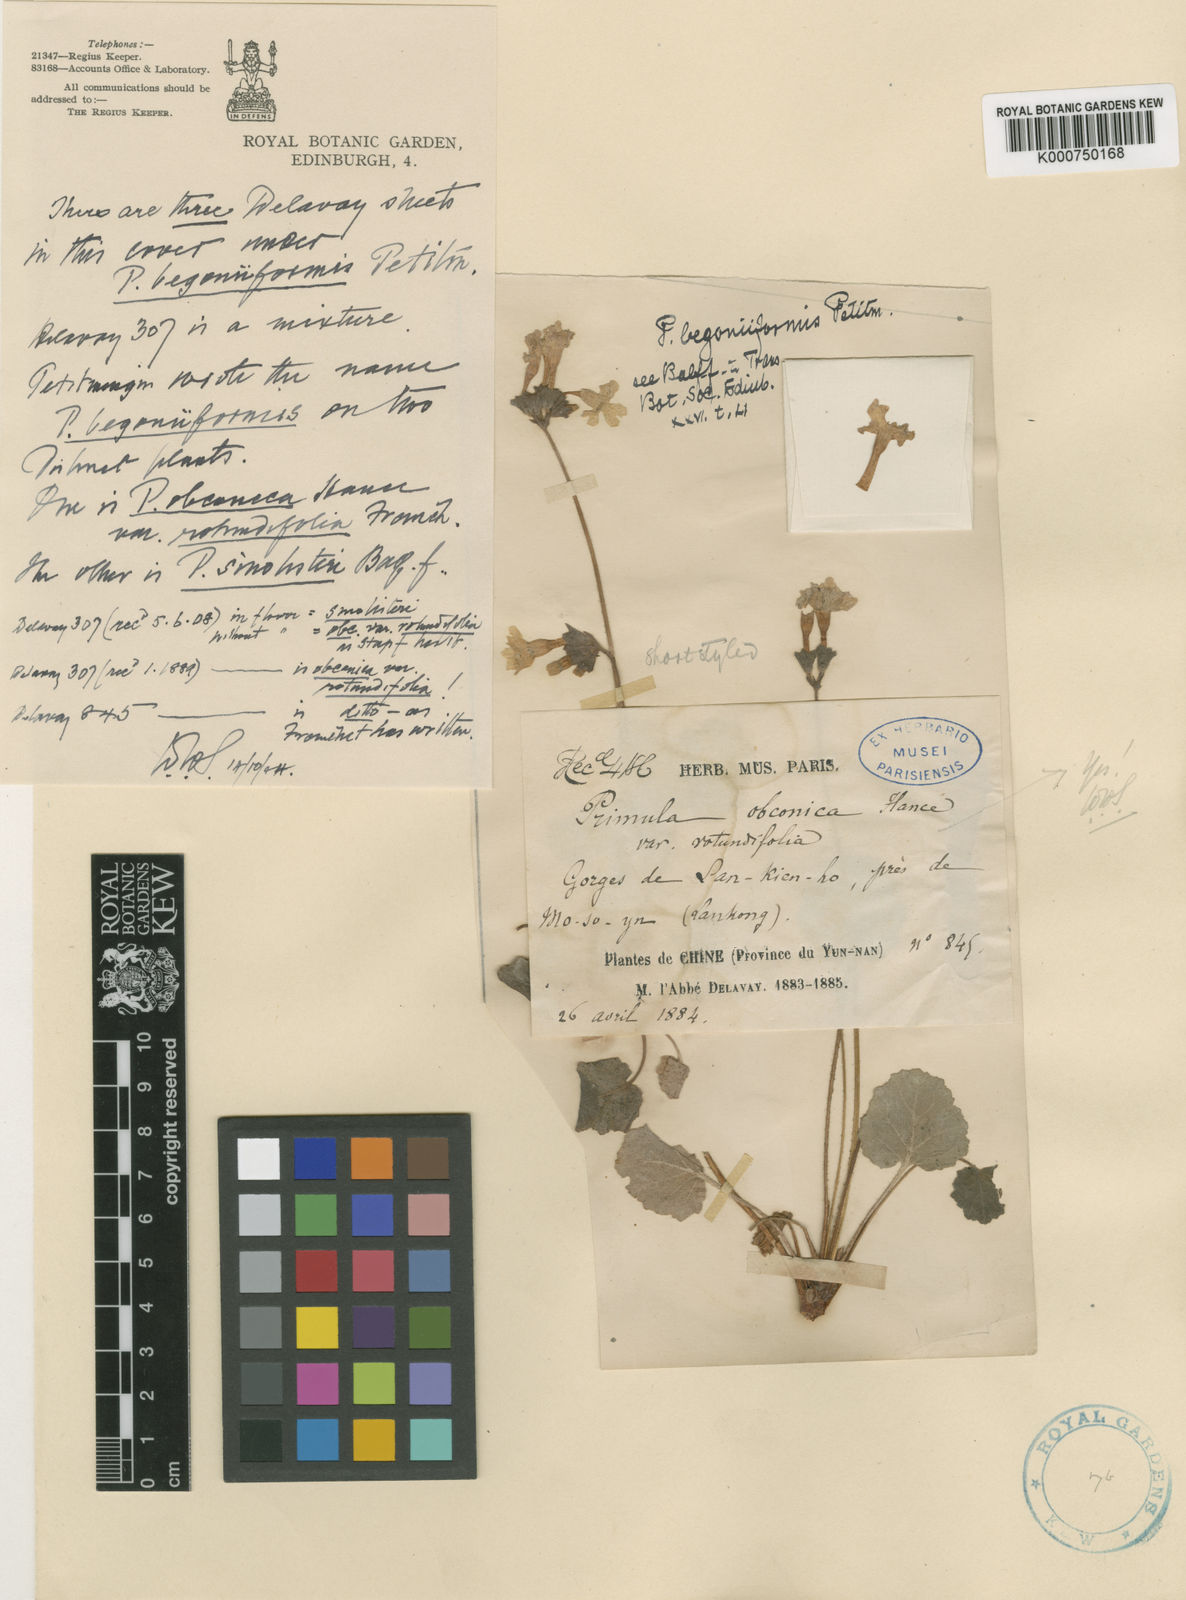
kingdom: Plantae
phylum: Tracheophyta
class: Magnoliopsida
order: Ericales
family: Primulaceae
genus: Primula
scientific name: Primula obconica
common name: German primrose
